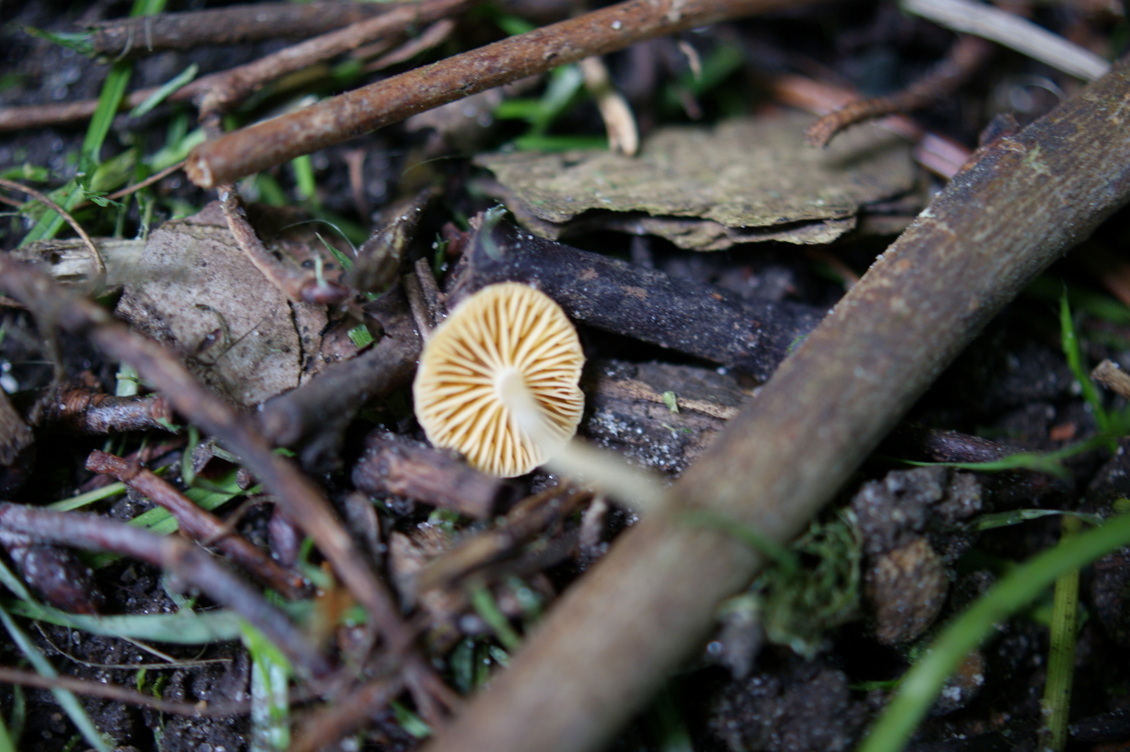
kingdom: Fungi
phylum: Basidiomycota
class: Agaricomycetes
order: Agaricales
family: Tubariaceae
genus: Tubaria
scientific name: Tubaria dispersa
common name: tjørne-fnughat
